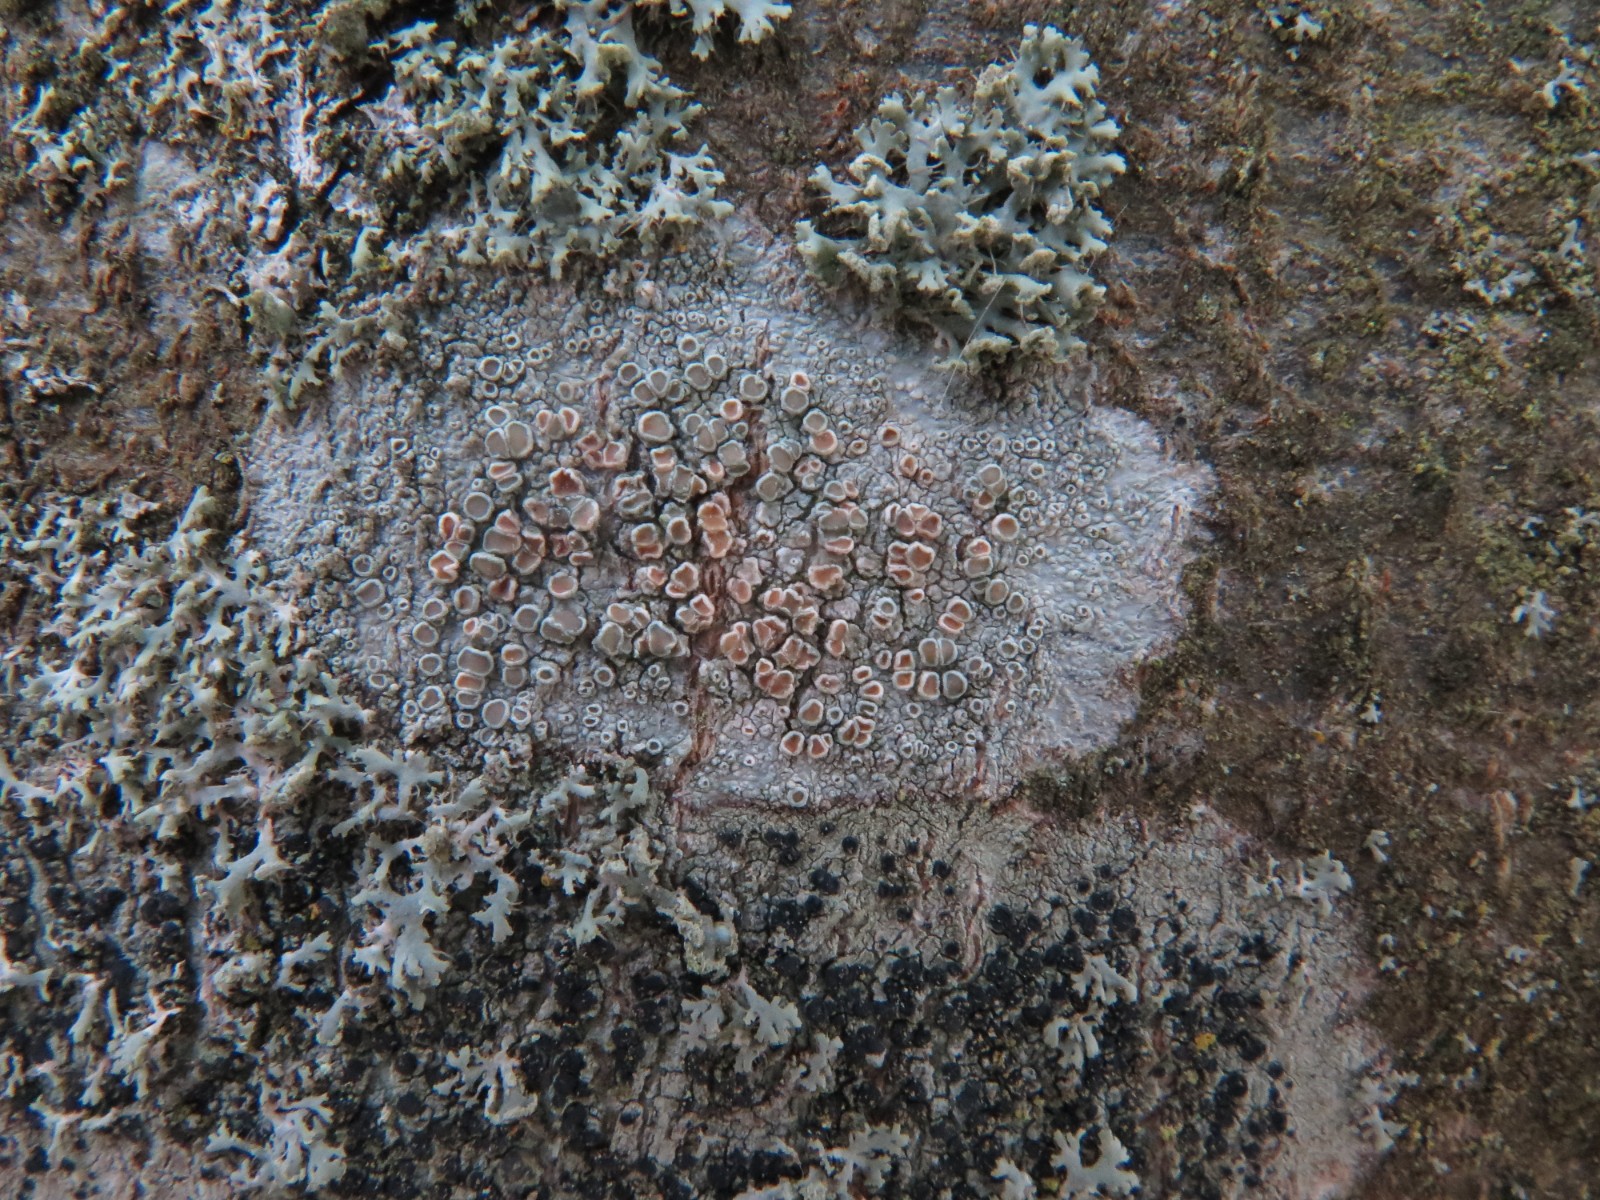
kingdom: Fungi
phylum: Ascomycota
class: Lecanoromycetes
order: Lecanorales
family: Lecanoraceae
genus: Lecanora
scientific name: Lecanora chlarotera
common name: brun kantskivelav
